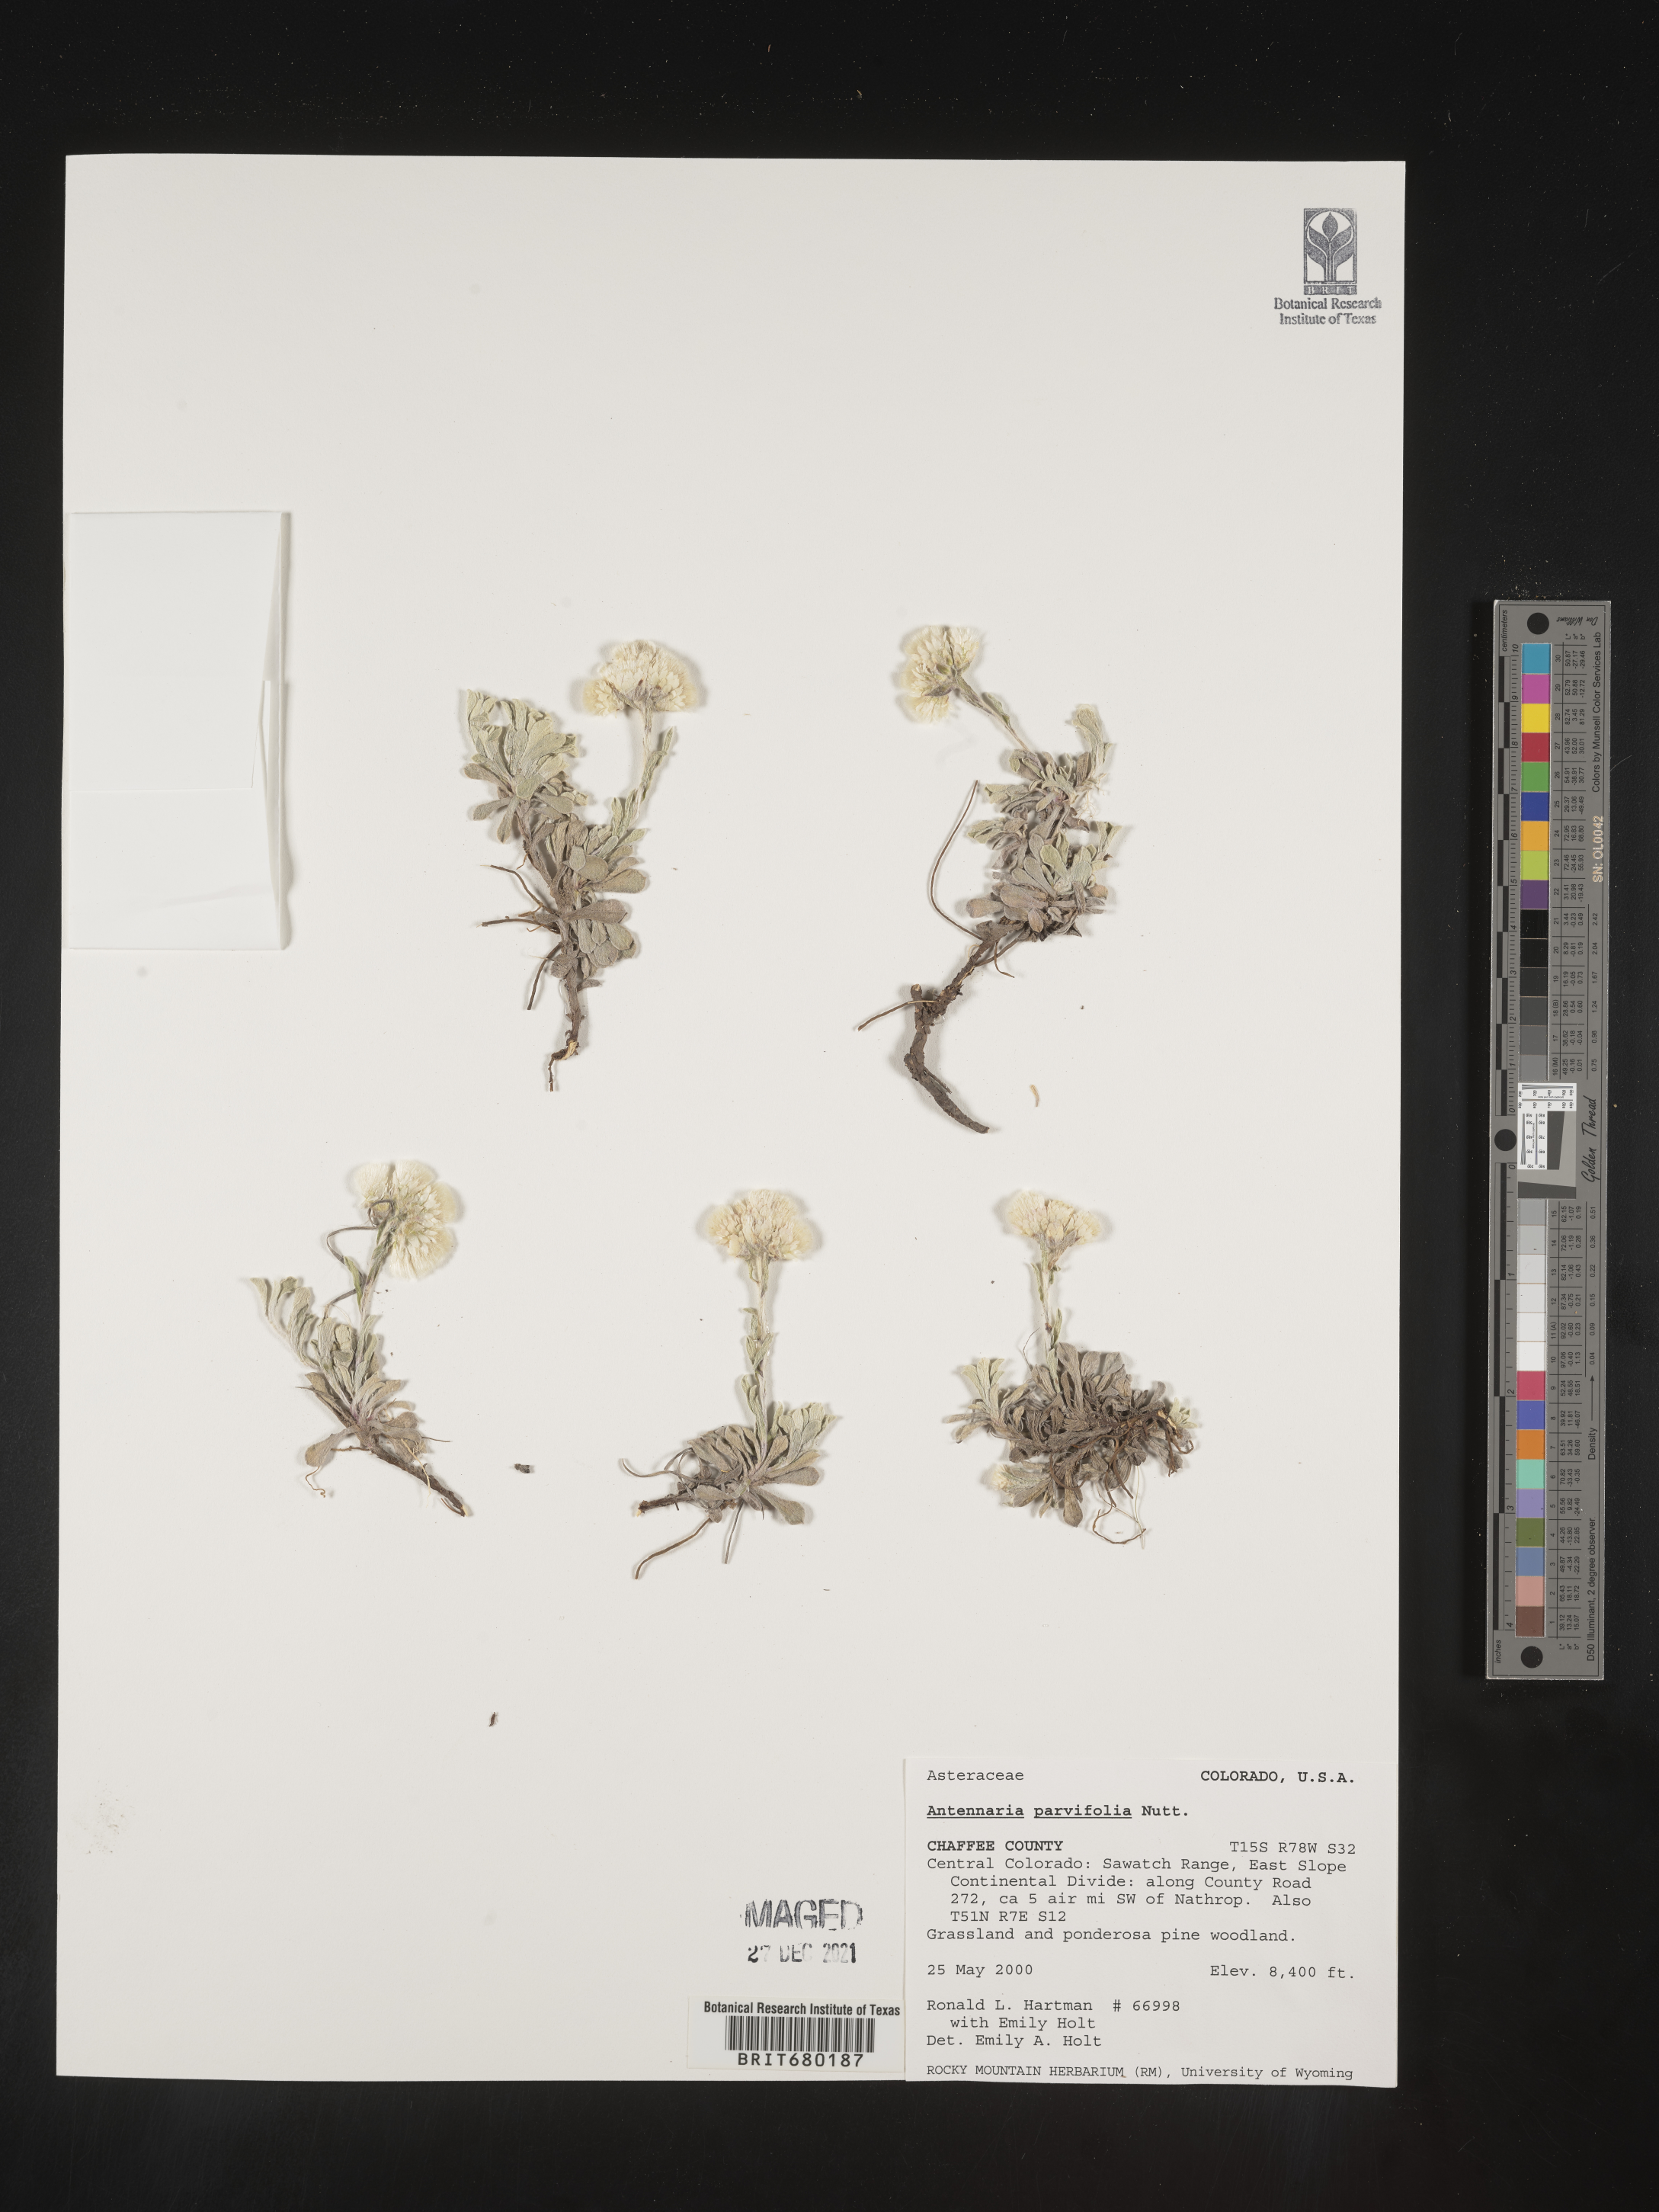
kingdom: Plantae
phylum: Tracheophyta
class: Magnoliopsida
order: Asterales
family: Asteraceae
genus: Antennaria
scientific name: Antennaria plantaginifolia
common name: Plantain-leaved pussytoes
